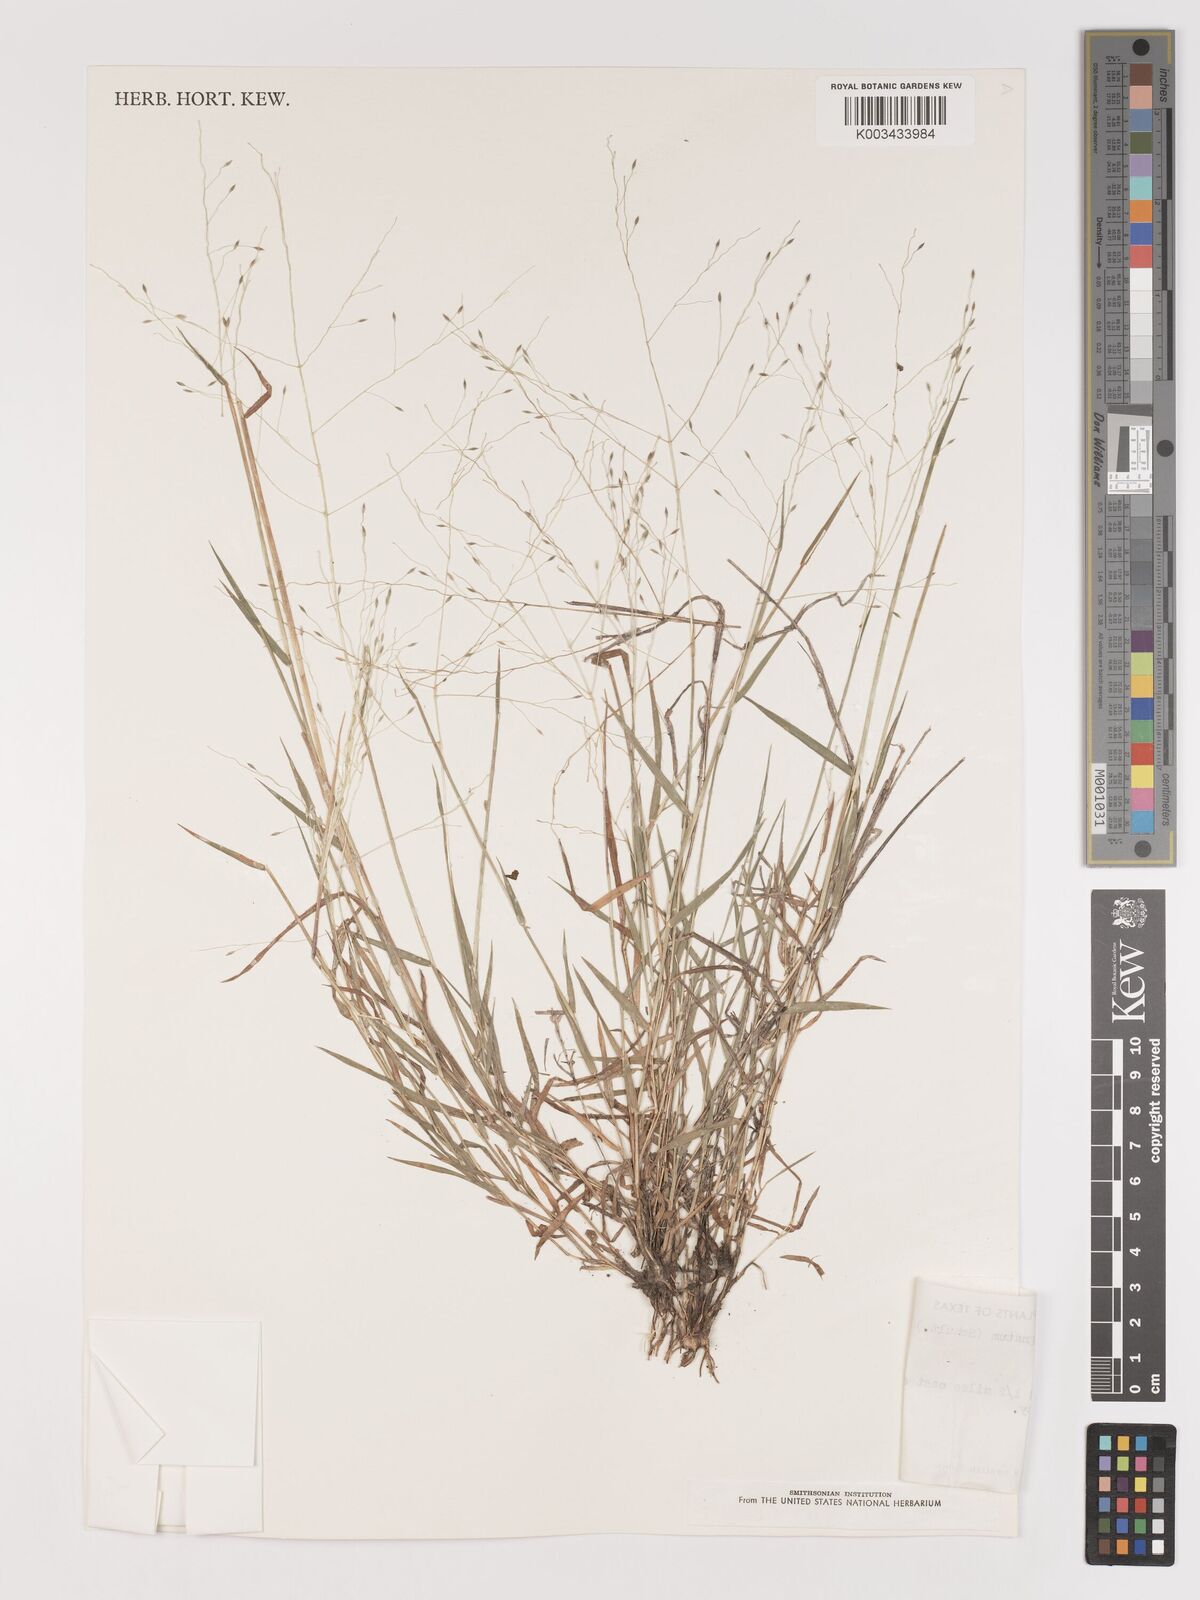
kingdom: Plantae
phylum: Tracheophyta
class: Liliopsida
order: Poales
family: Poaceae
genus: Digitaria
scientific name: Digitaria
